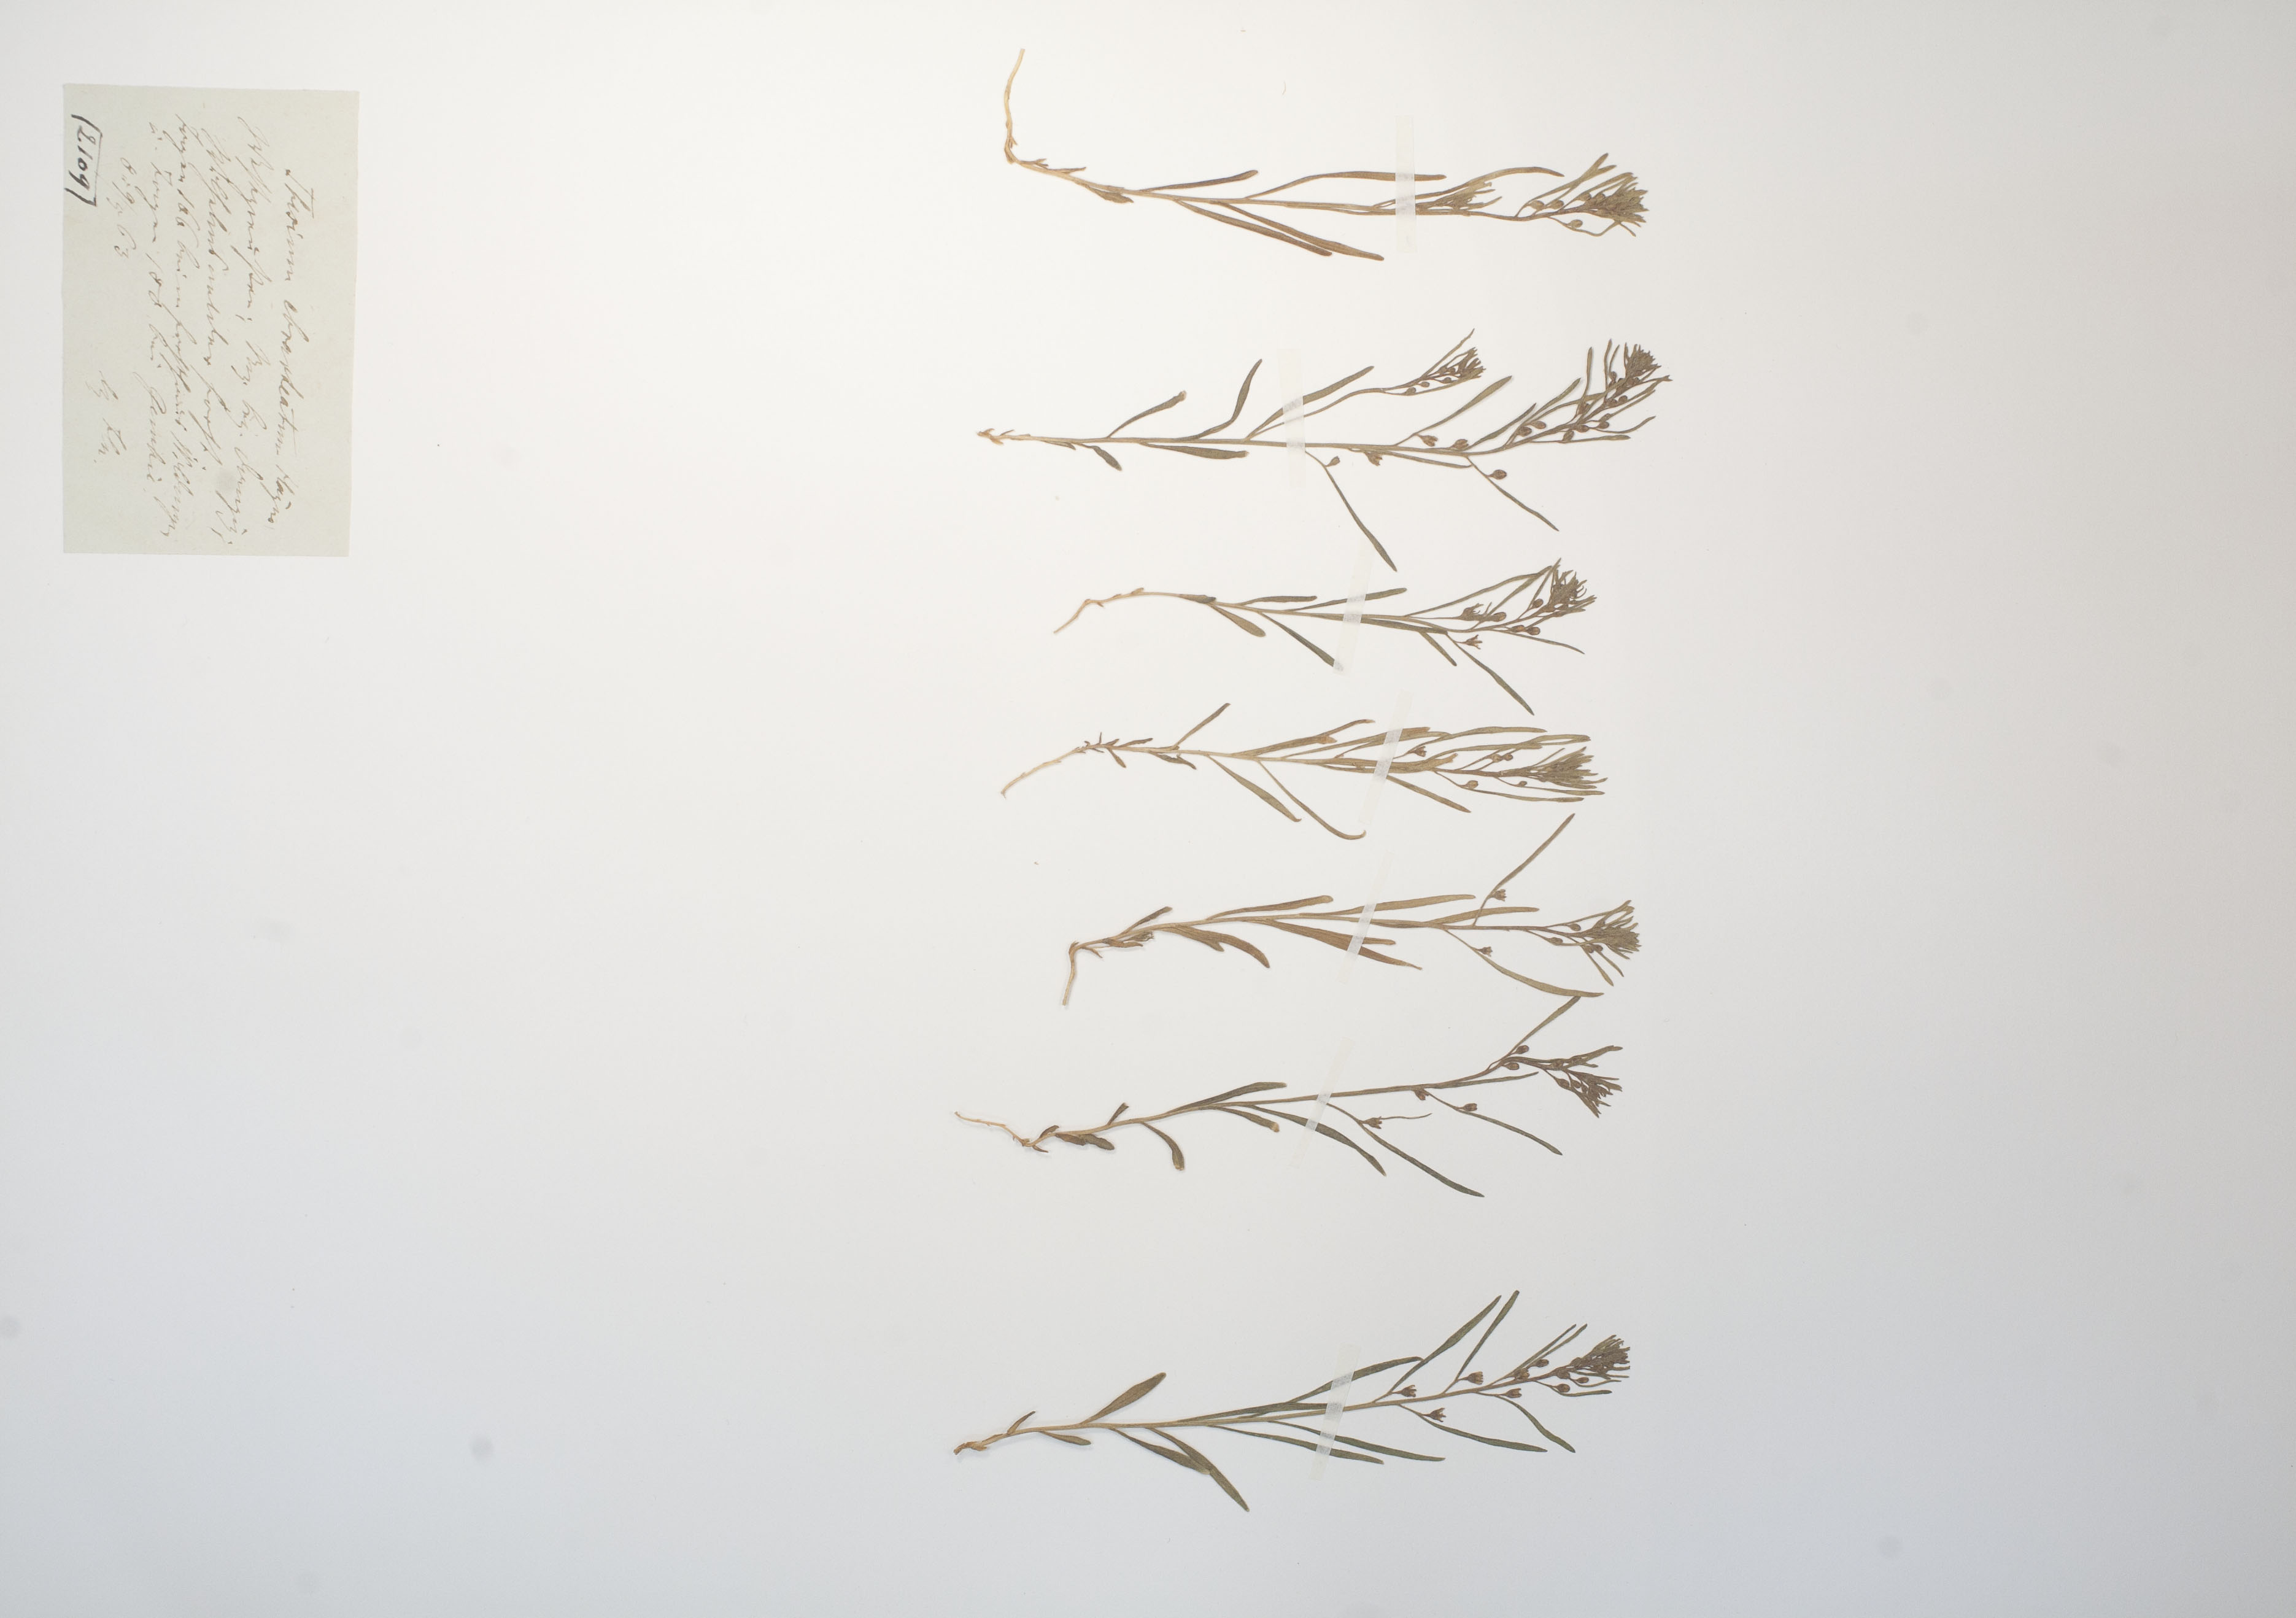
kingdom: Plantae
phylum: Tracheophyta
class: Magnoliopsida
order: Santalales
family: Thesiaceae
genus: Thesium
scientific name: Thesium ebracteatum
